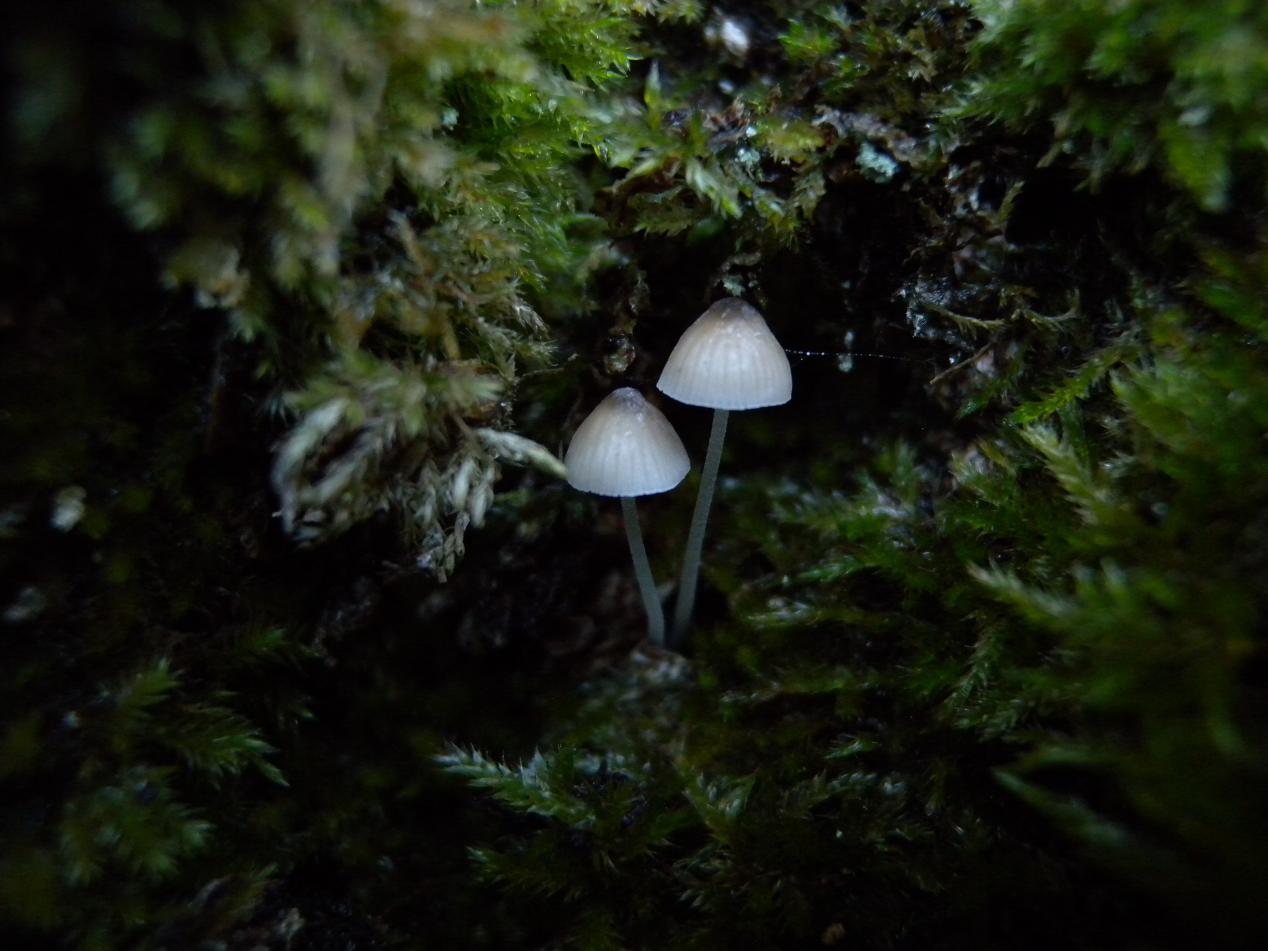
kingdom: Fungi
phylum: Basidiomycota
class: Agaricomycetes
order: Agaricales
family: Porotheleaceae
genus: Phloeomana
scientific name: Phloeomana hiemalis
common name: sen huesvamp
